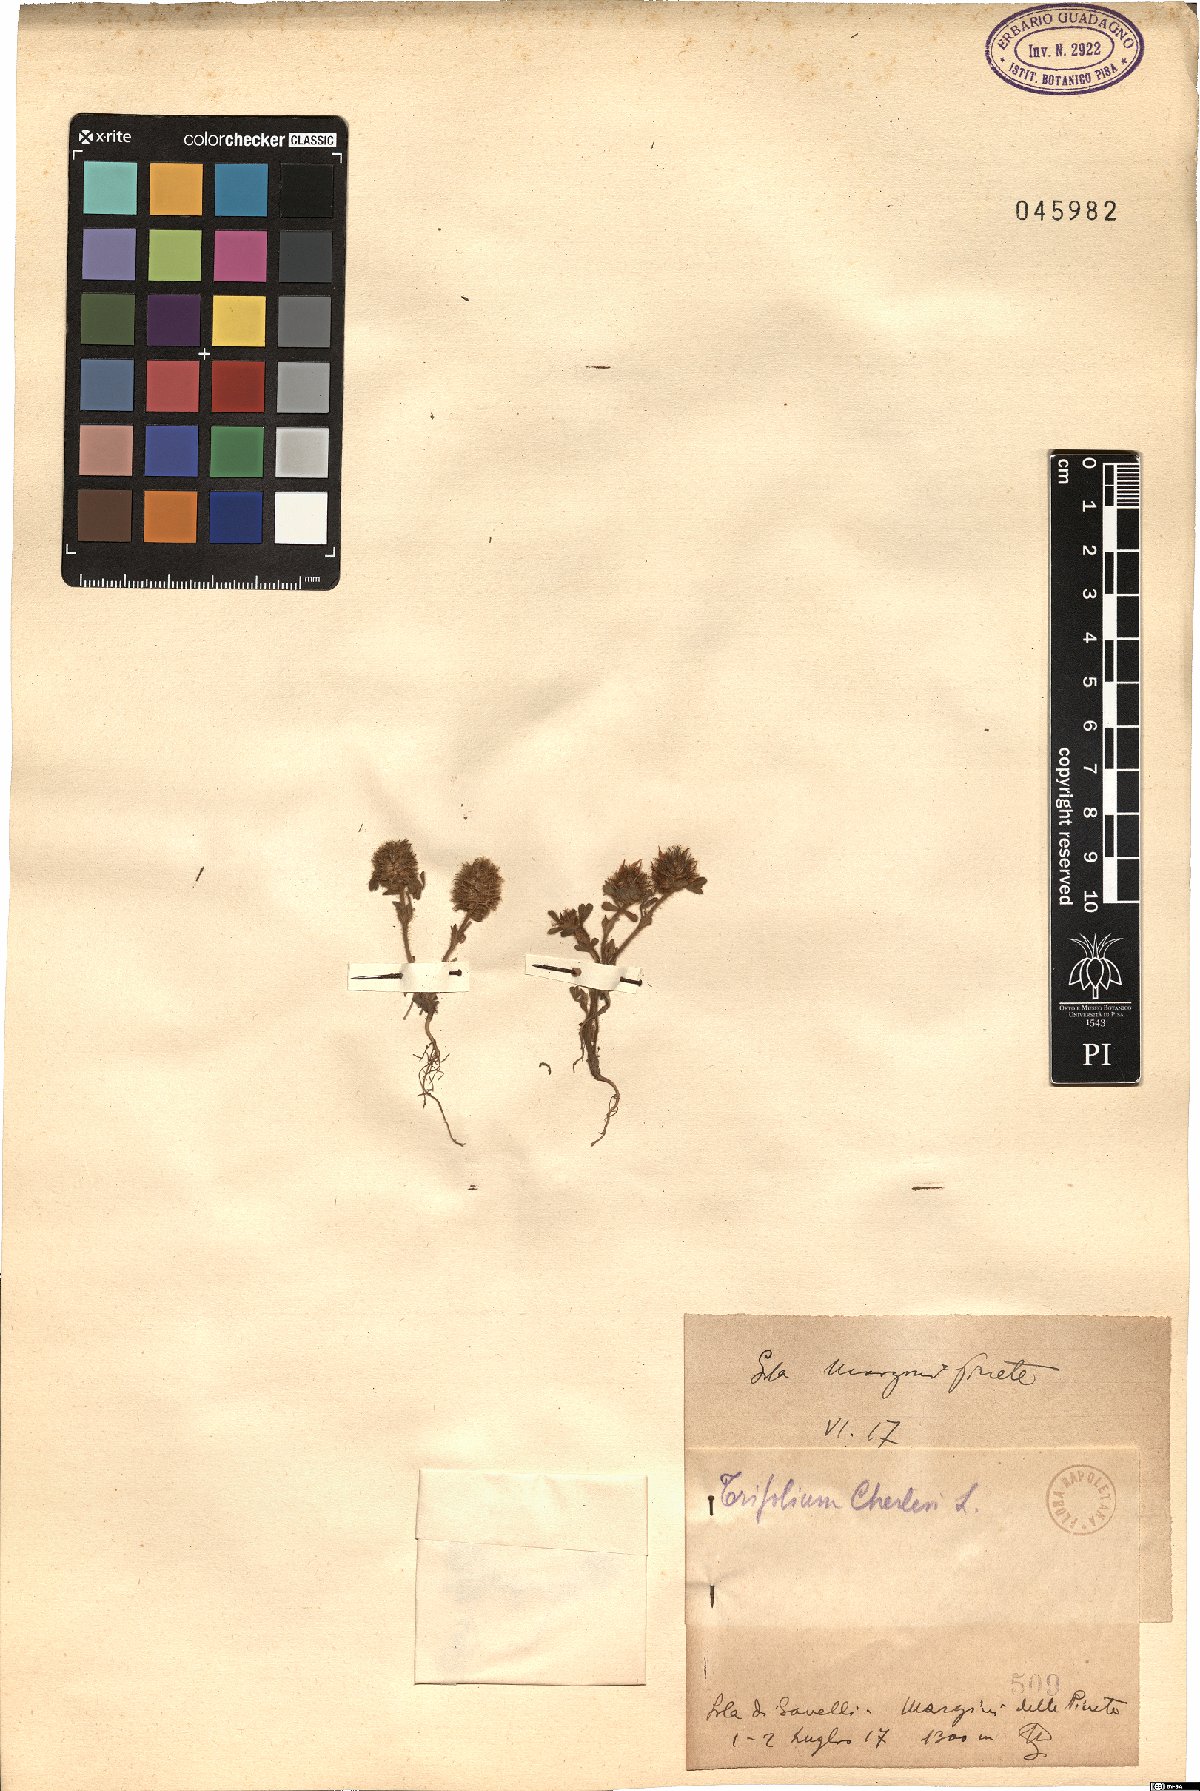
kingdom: Plantae
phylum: Tracheophyta
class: Magnoliopsida
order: Fabales
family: Fabaceae
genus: Trifolium
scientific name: Trifolium cherleri
